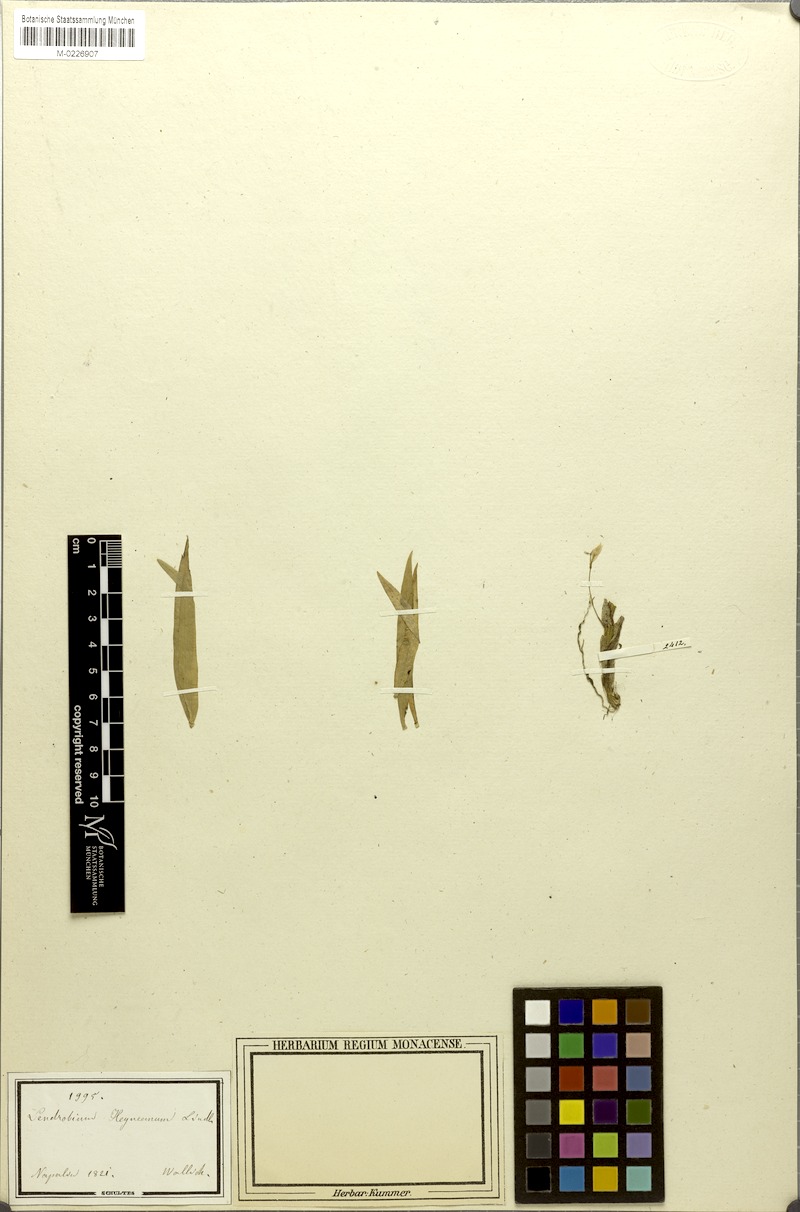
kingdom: Plantae
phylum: Tracheophyta
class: Liliopsida
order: Asparagales
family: Orchidaceae
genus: Dendrobium
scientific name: Dendrobium heyneanum
